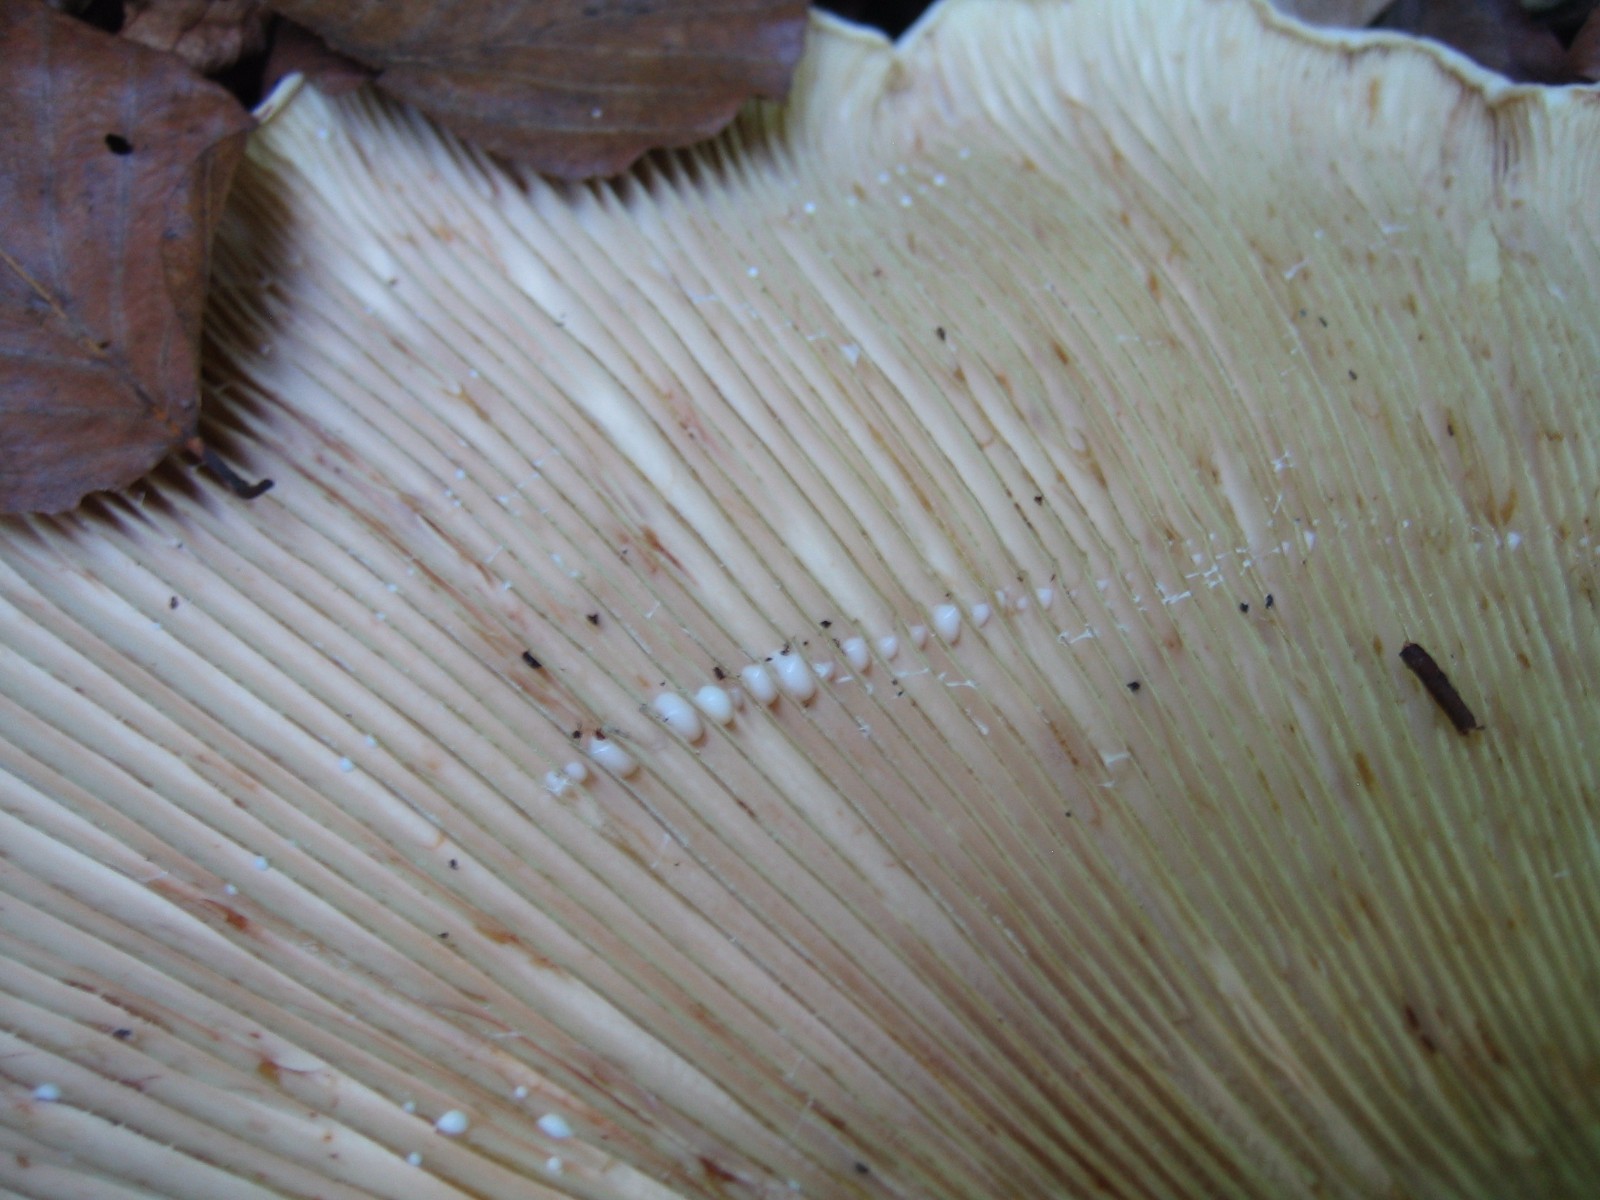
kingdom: Fungi
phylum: Basidiomycota
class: Agaricomycetes
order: Russulales
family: Russulaceae
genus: Lactifluus
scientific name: Lactifluus vellereus
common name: hvidfiltet mælkehat
